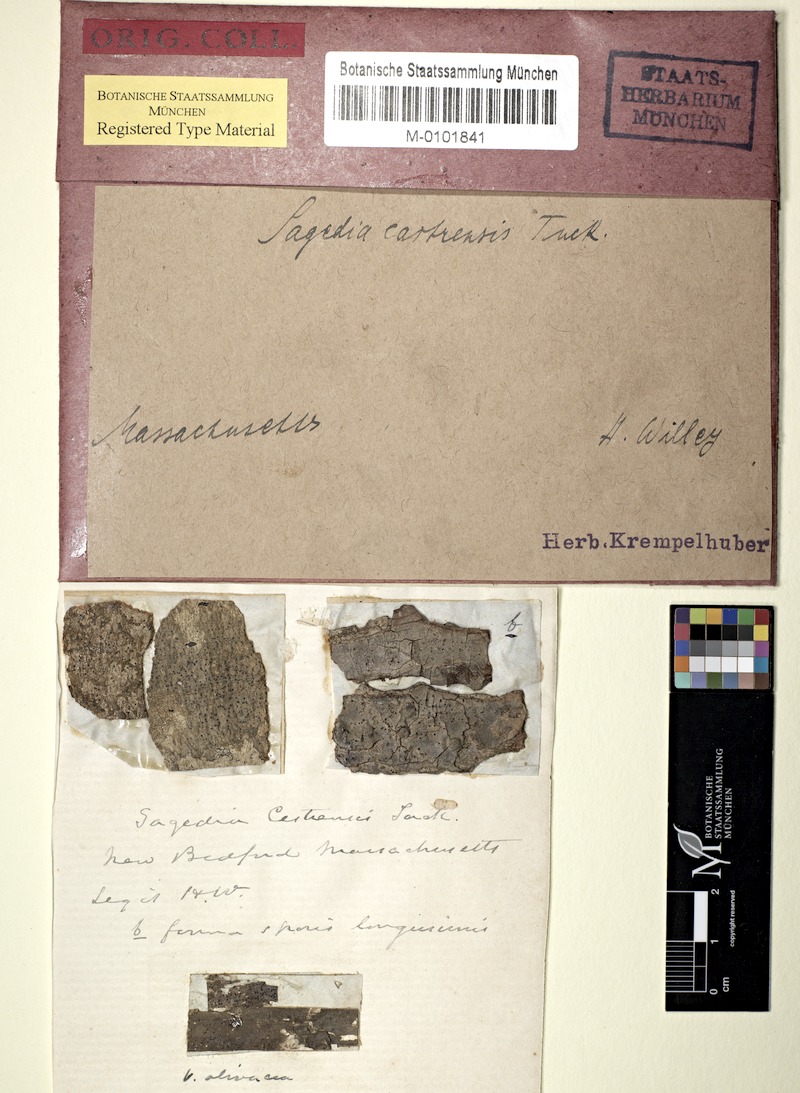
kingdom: Fungi
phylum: Ascomycota
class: Lecanoromycetes
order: Ostropales
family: Porinaceae
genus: Pseudosagedia
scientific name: Pseudosagedia cestrensis
